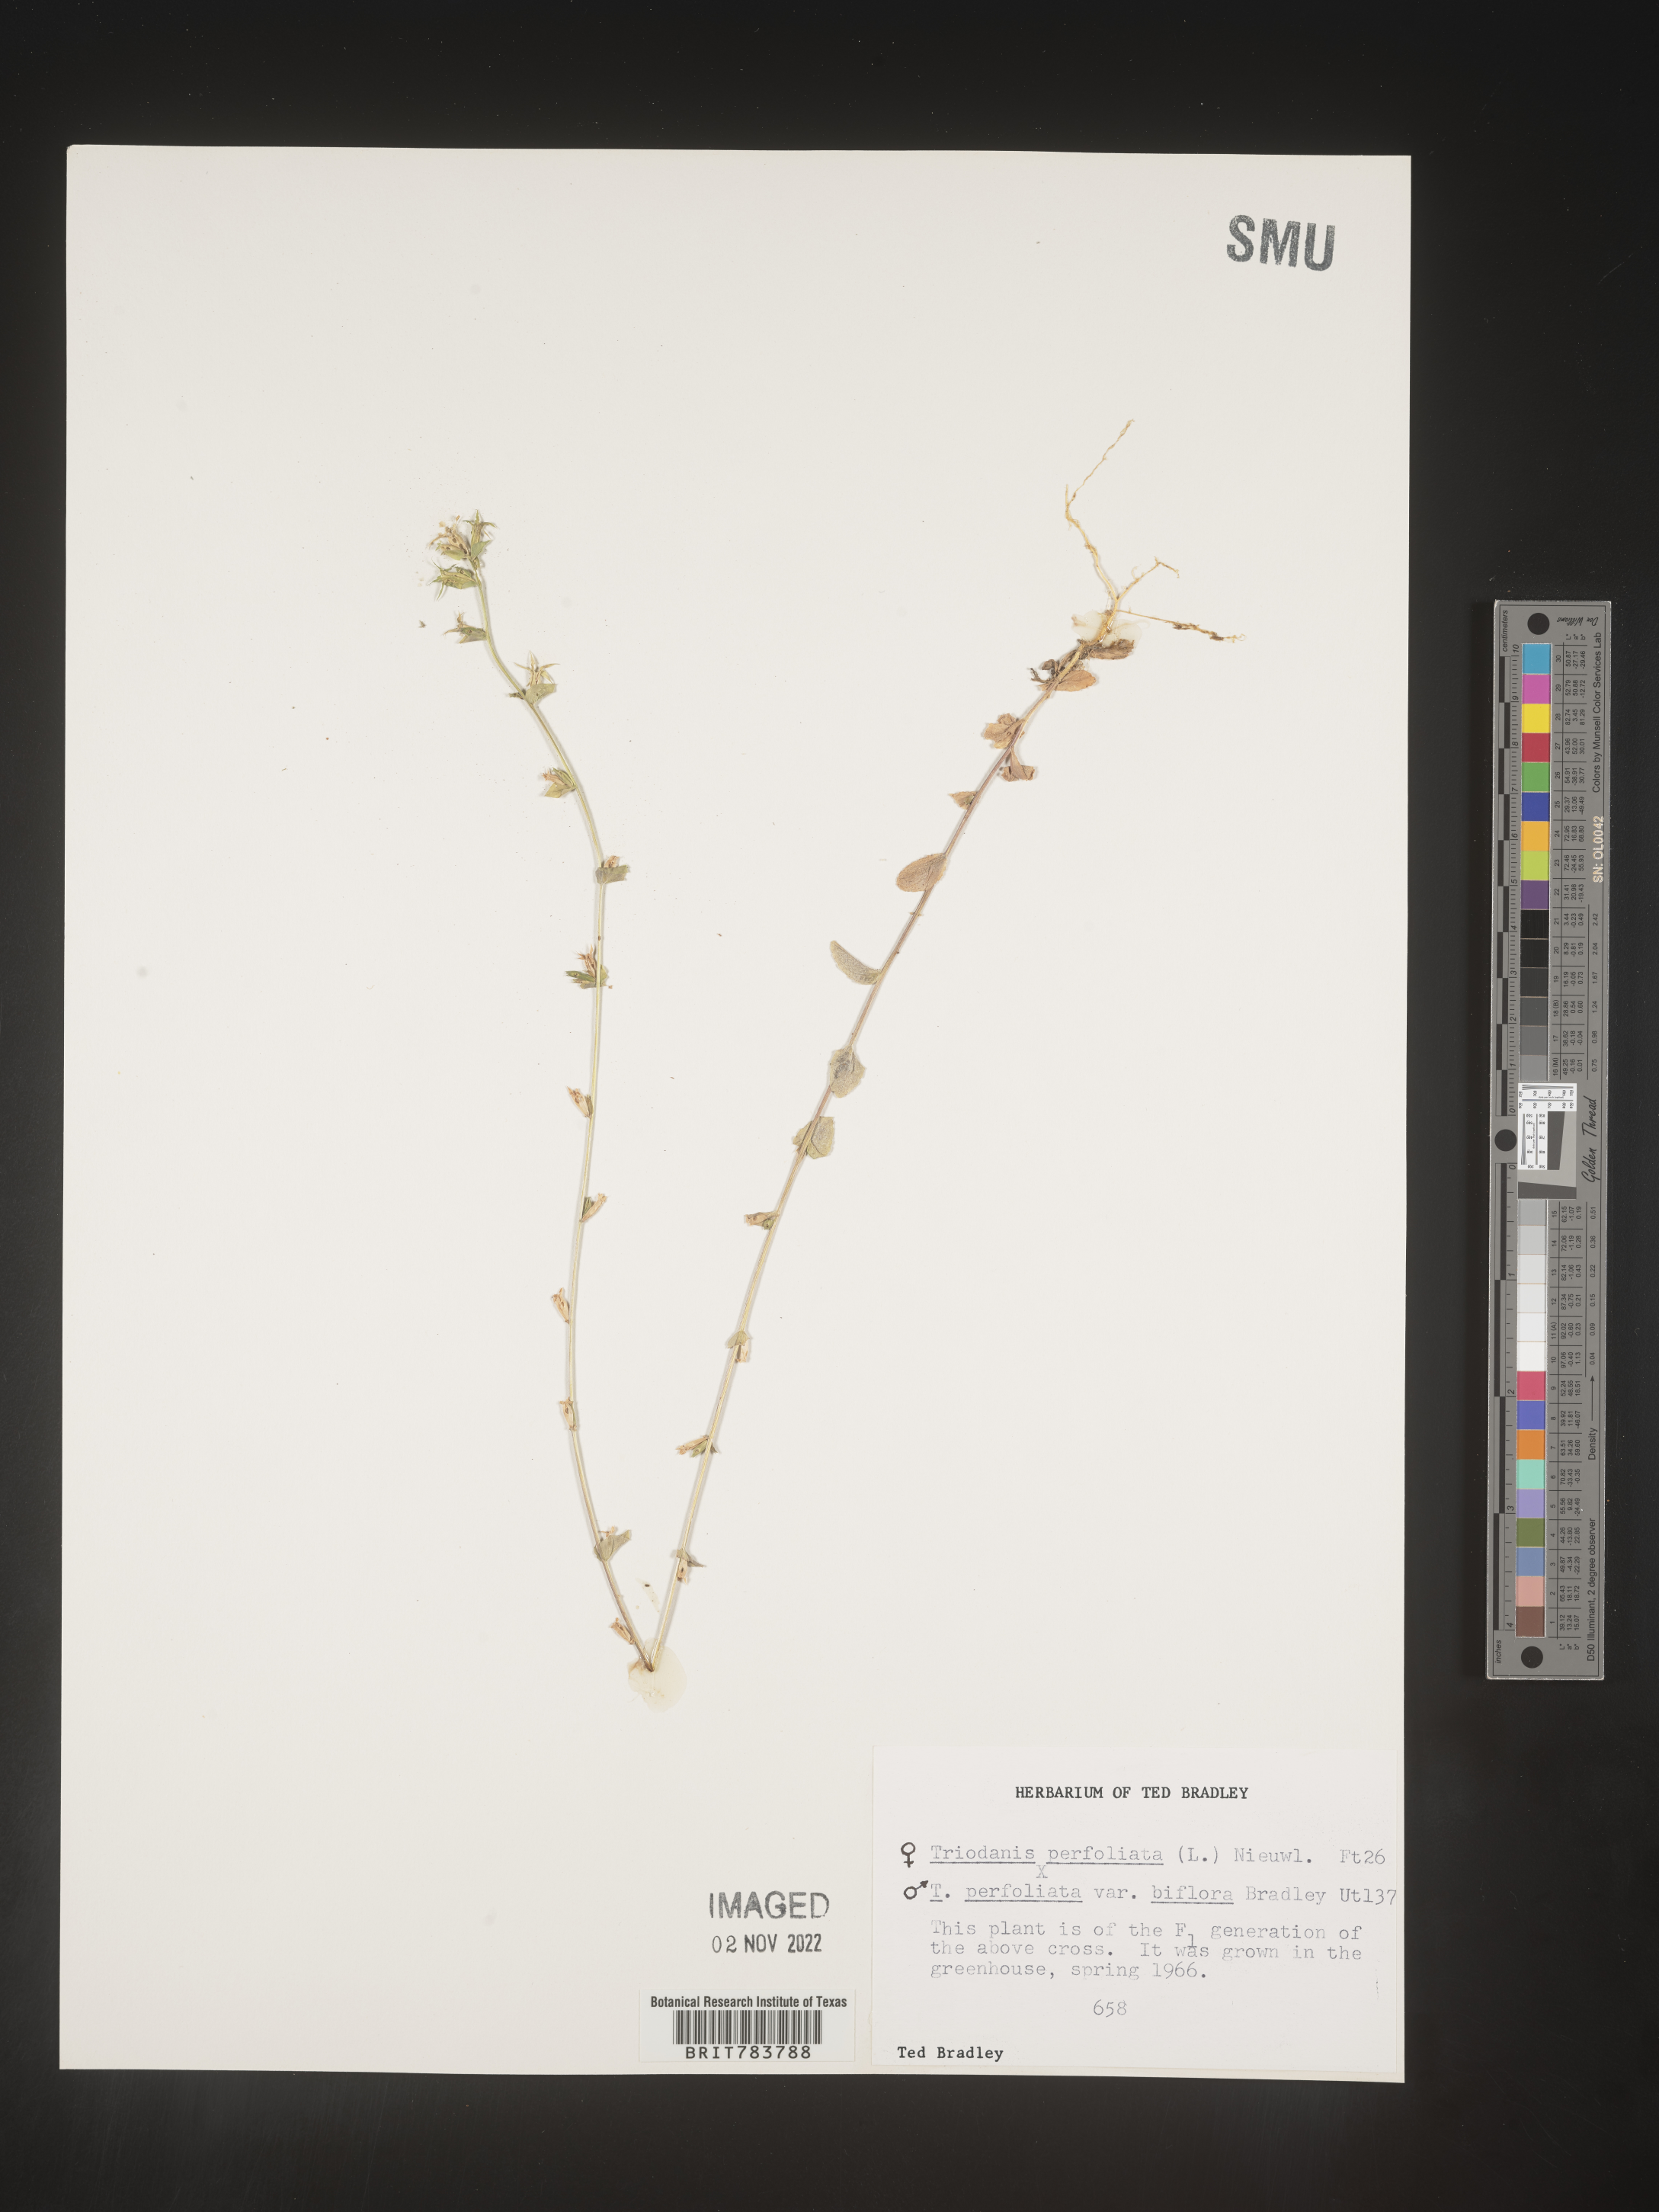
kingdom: Plantae
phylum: Tracheophyta
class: Magnoliopsida
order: Asterales
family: Campanulaceae
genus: Triodanis
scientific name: Triodanis
